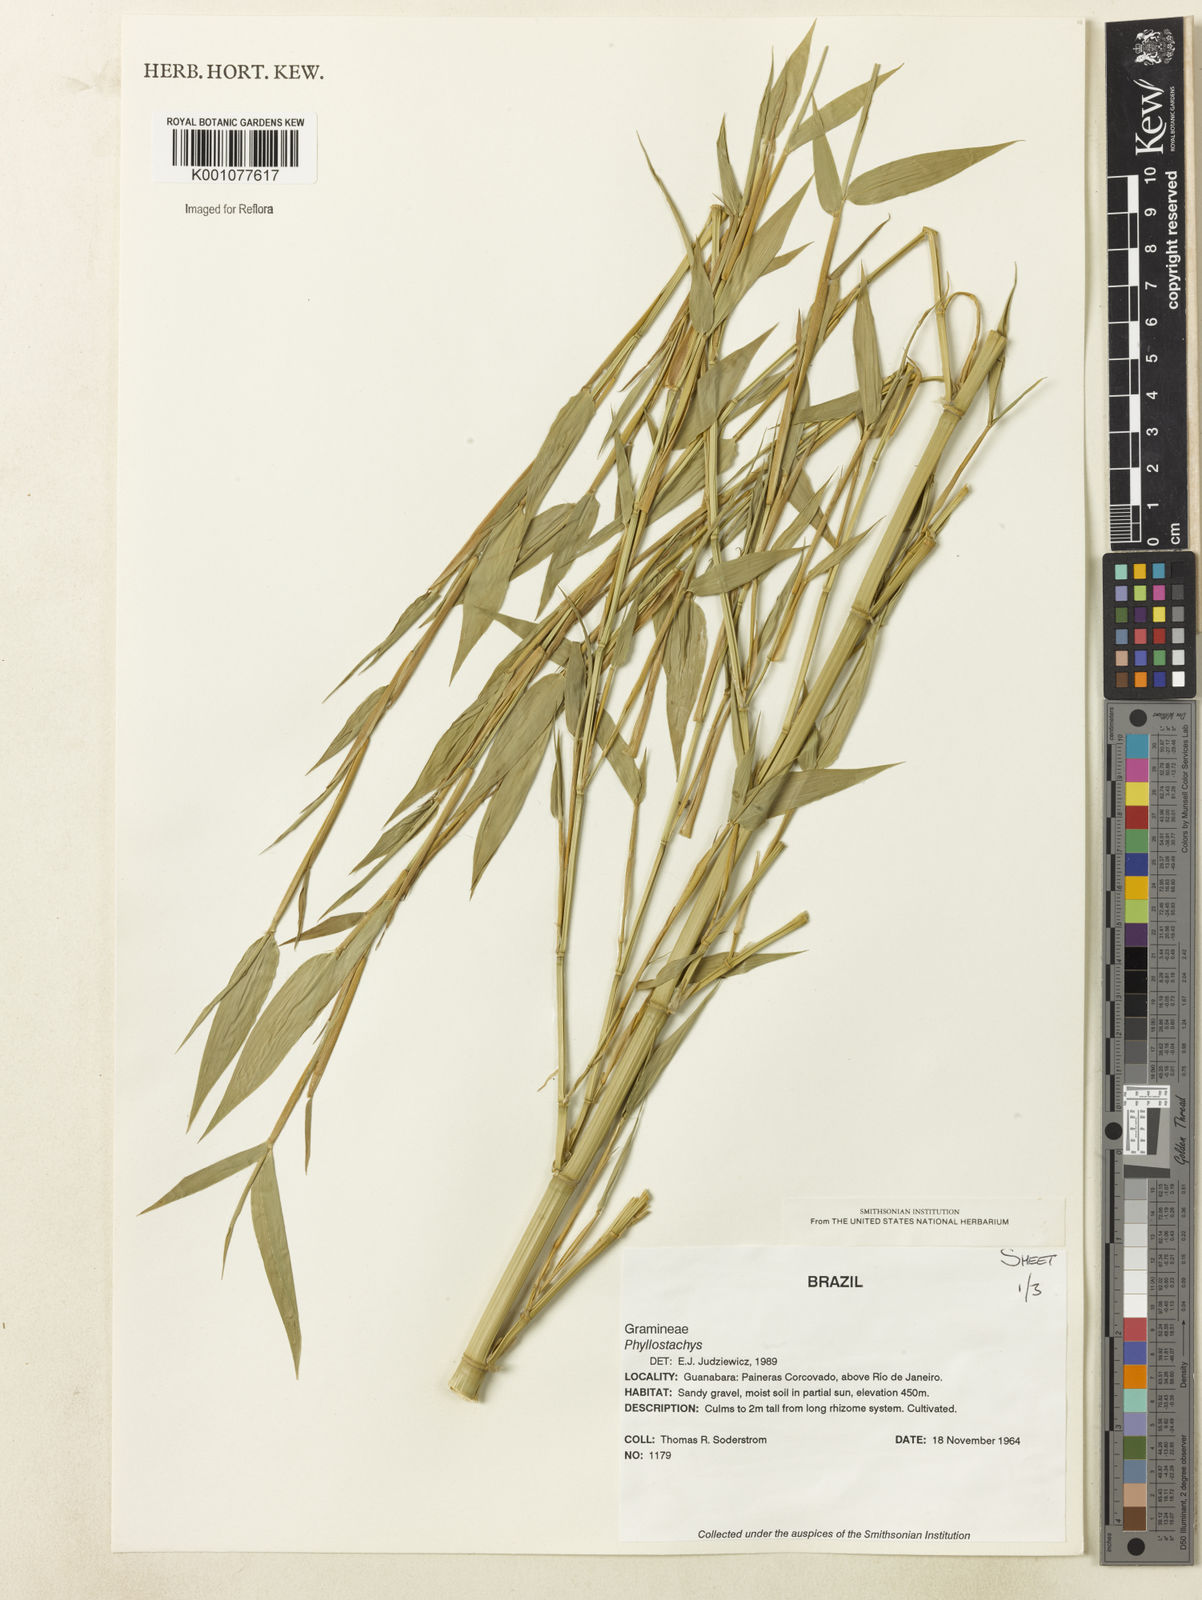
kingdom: Plantae
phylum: Tracheophyta
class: Liliopsida
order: Poales
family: Poaceae
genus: Phyllostachys
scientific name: Phyllostachys
